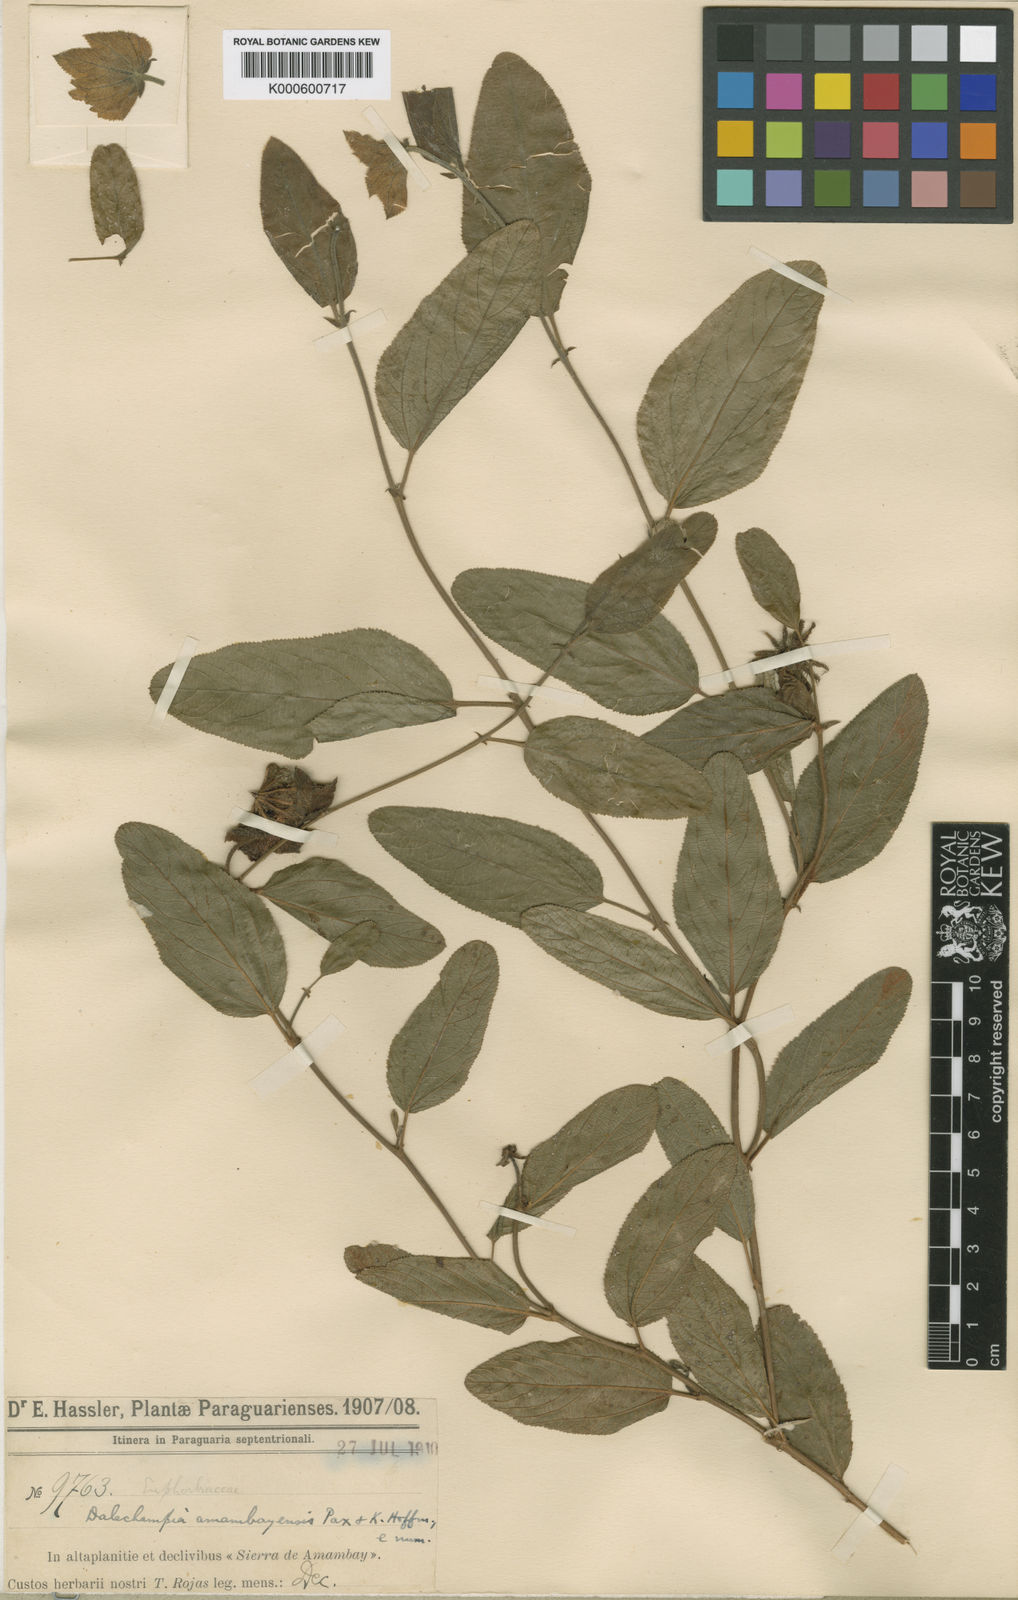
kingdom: Plantae
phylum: Tracheophyta
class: Magnoliopsida
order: Malpighiales
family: Euphorbiaceae
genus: Dalechampia
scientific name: Dalechampia weddelliana
